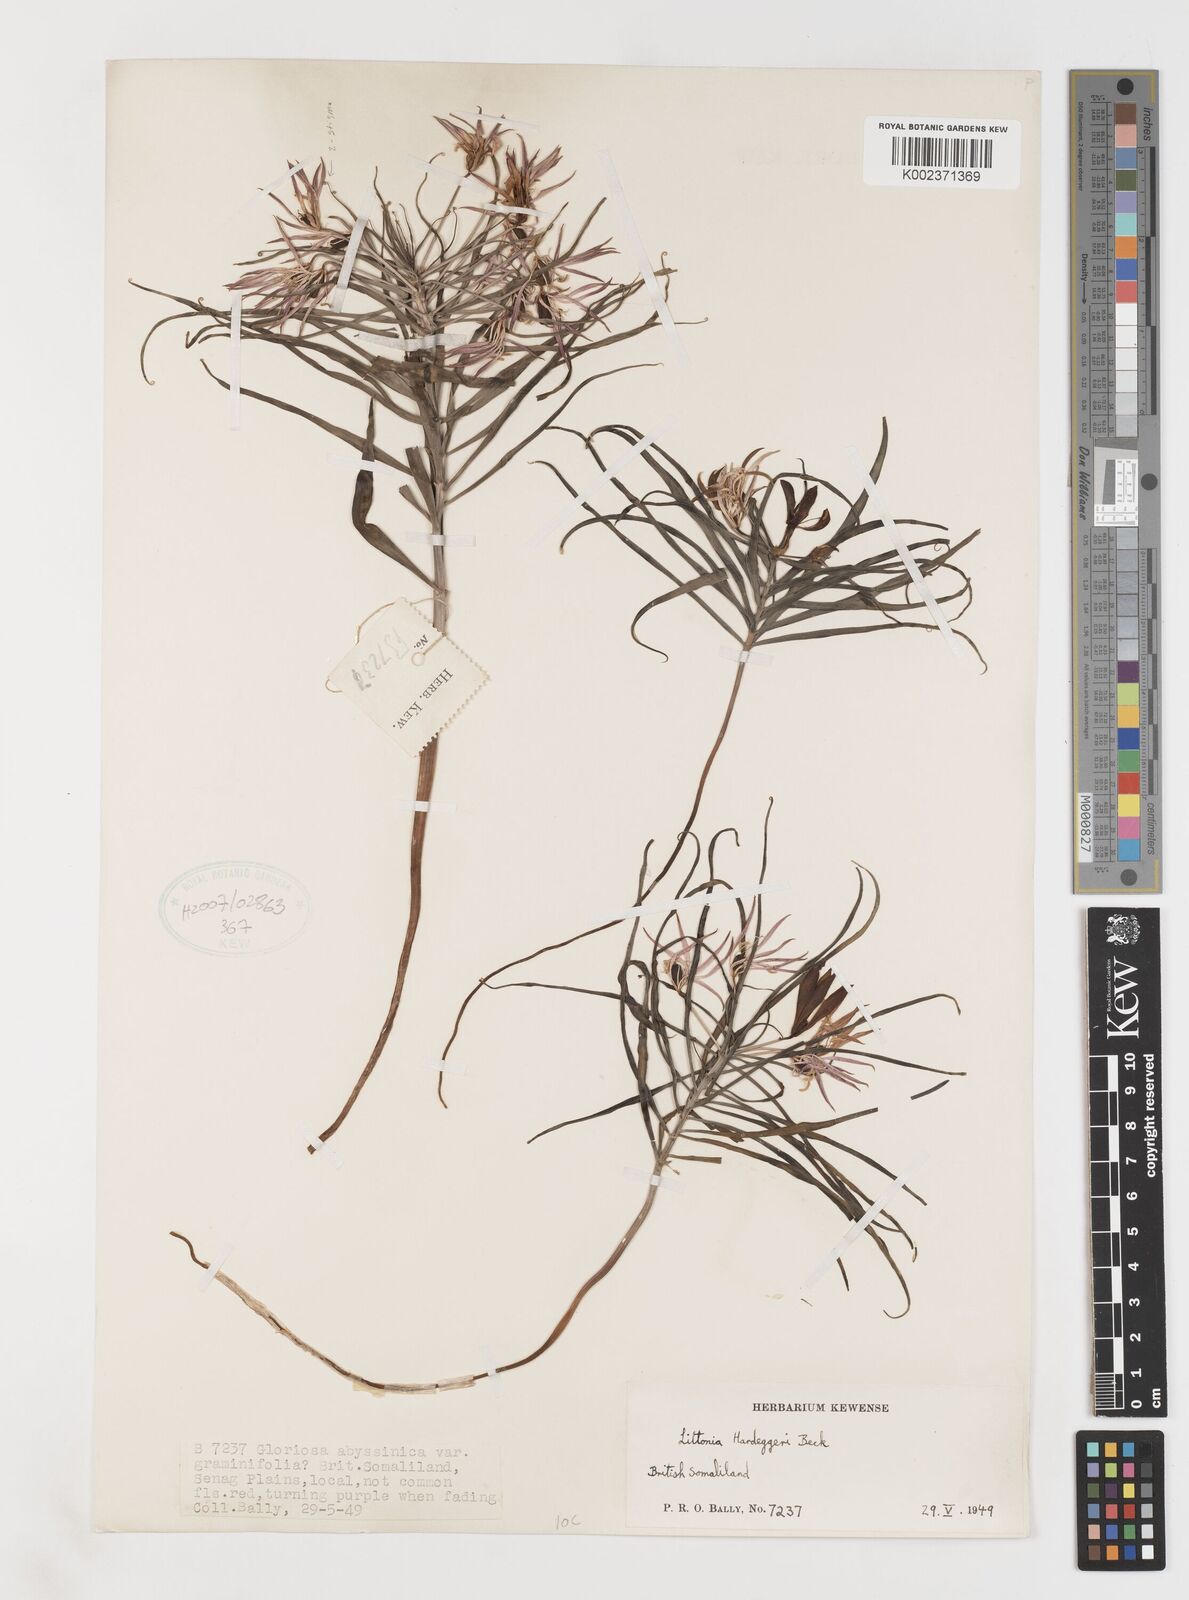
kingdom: Plantae
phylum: Tracheophyta
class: Liliopsida
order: Liliales
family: Colchicaceae
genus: Gloriosa
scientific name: Gloriosa baudii
